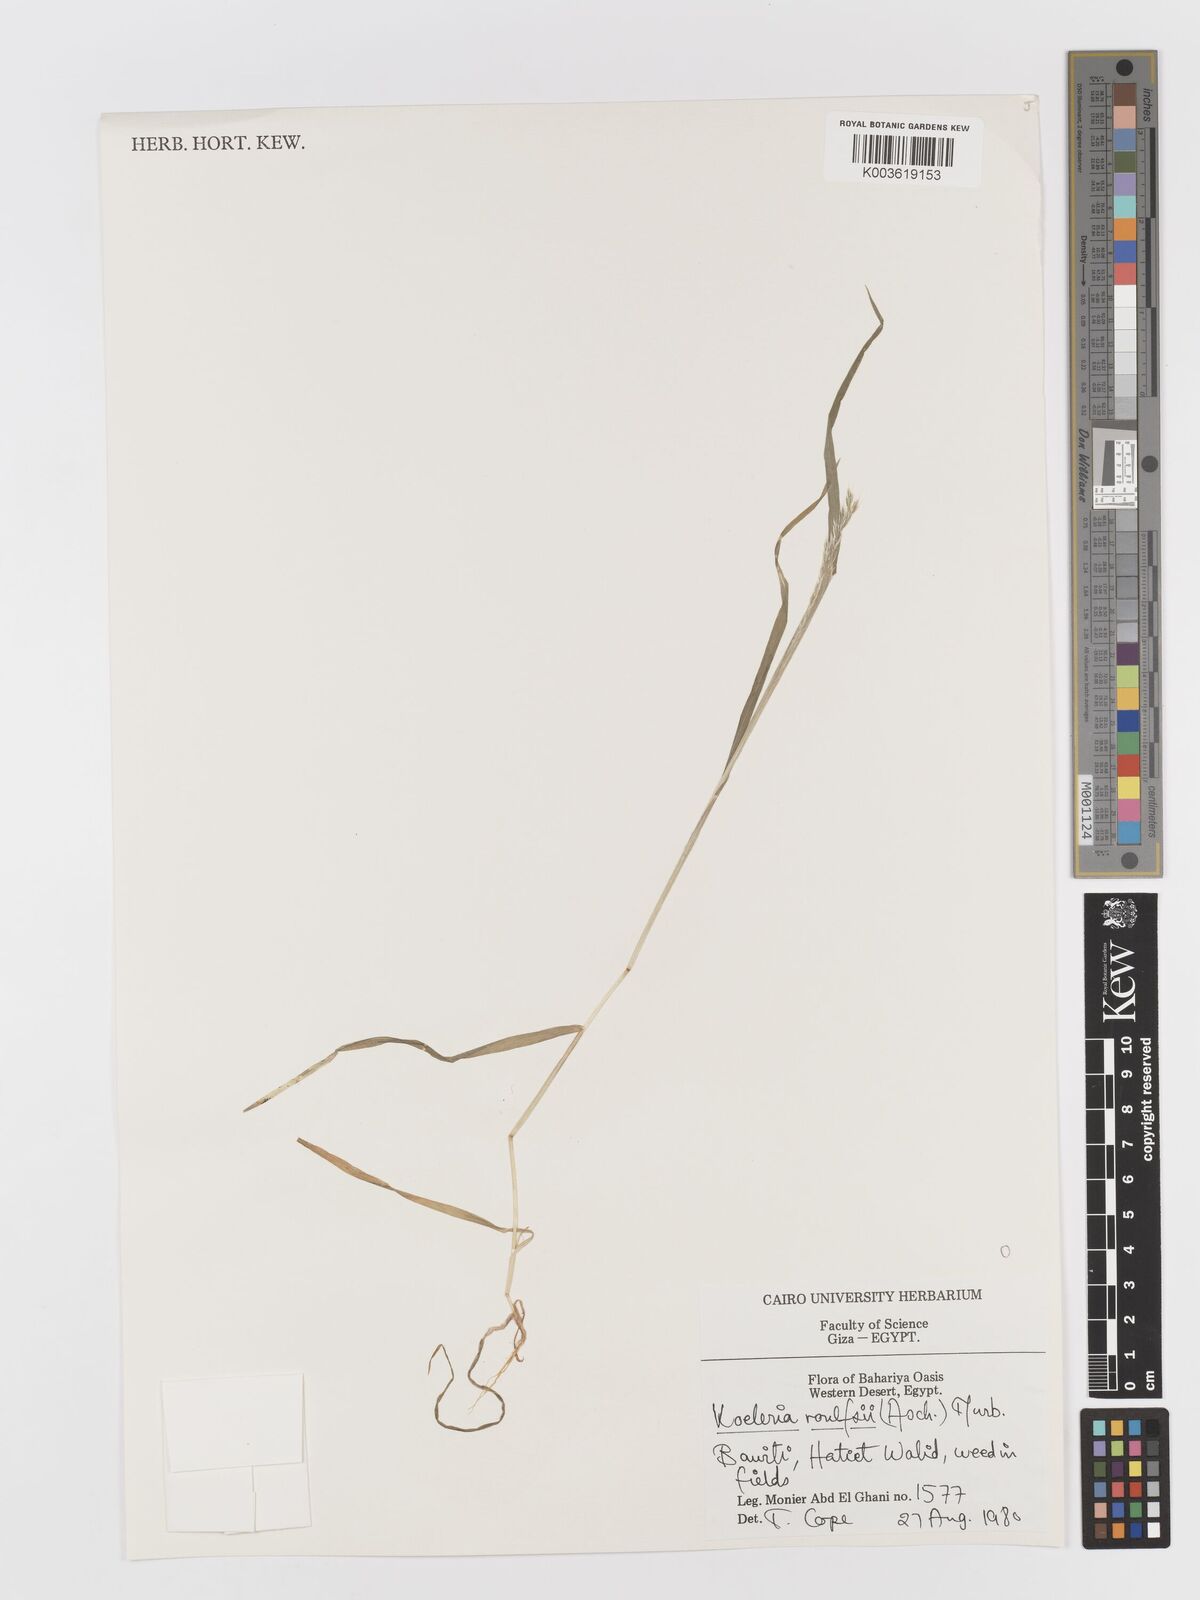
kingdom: Plantae
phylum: Tracheophyta
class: Liliopsida
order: Poales
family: Poaceae
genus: Rostraria
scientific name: Rostraria rohlfsii
